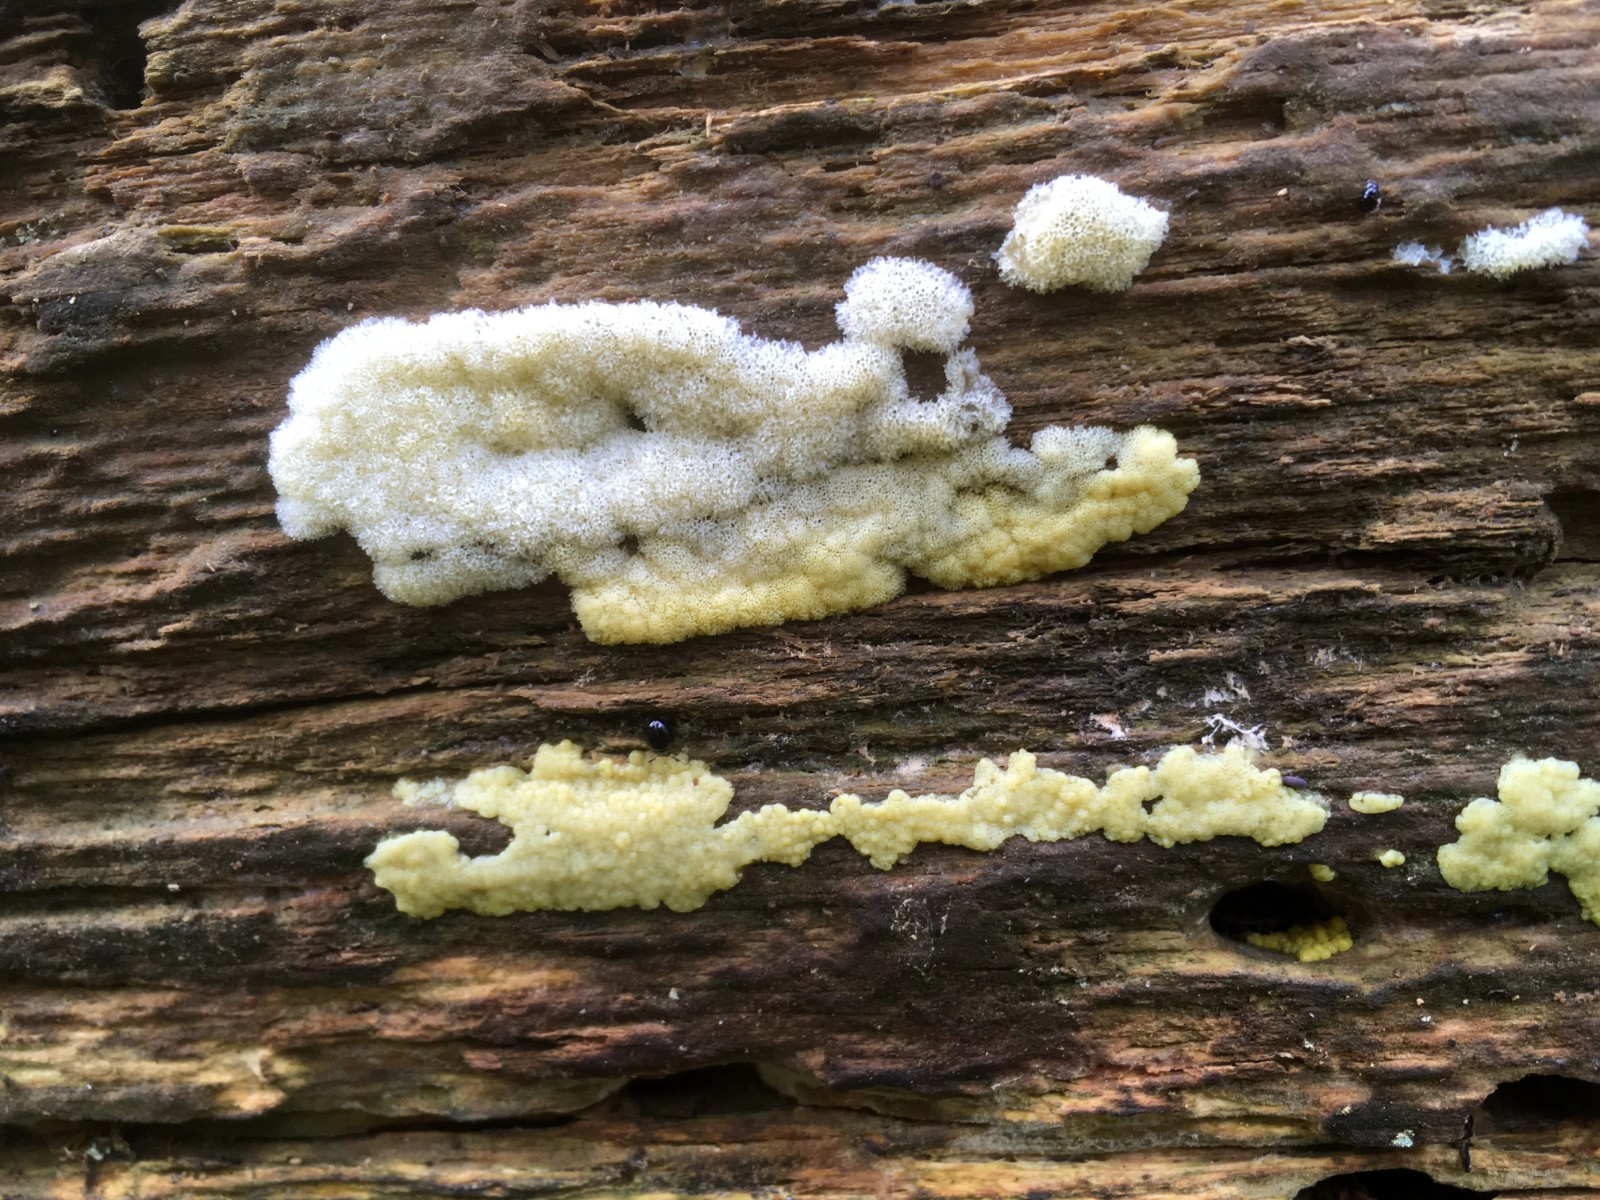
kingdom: Protozoa
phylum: Mycetozoa
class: Protosteliomycetes
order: Ceratiomyxales
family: Ceratiomyxaceae
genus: Ceratiomyxa
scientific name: Ceratiomyxa fruticulosa
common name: Honeycomb coral slime mold
